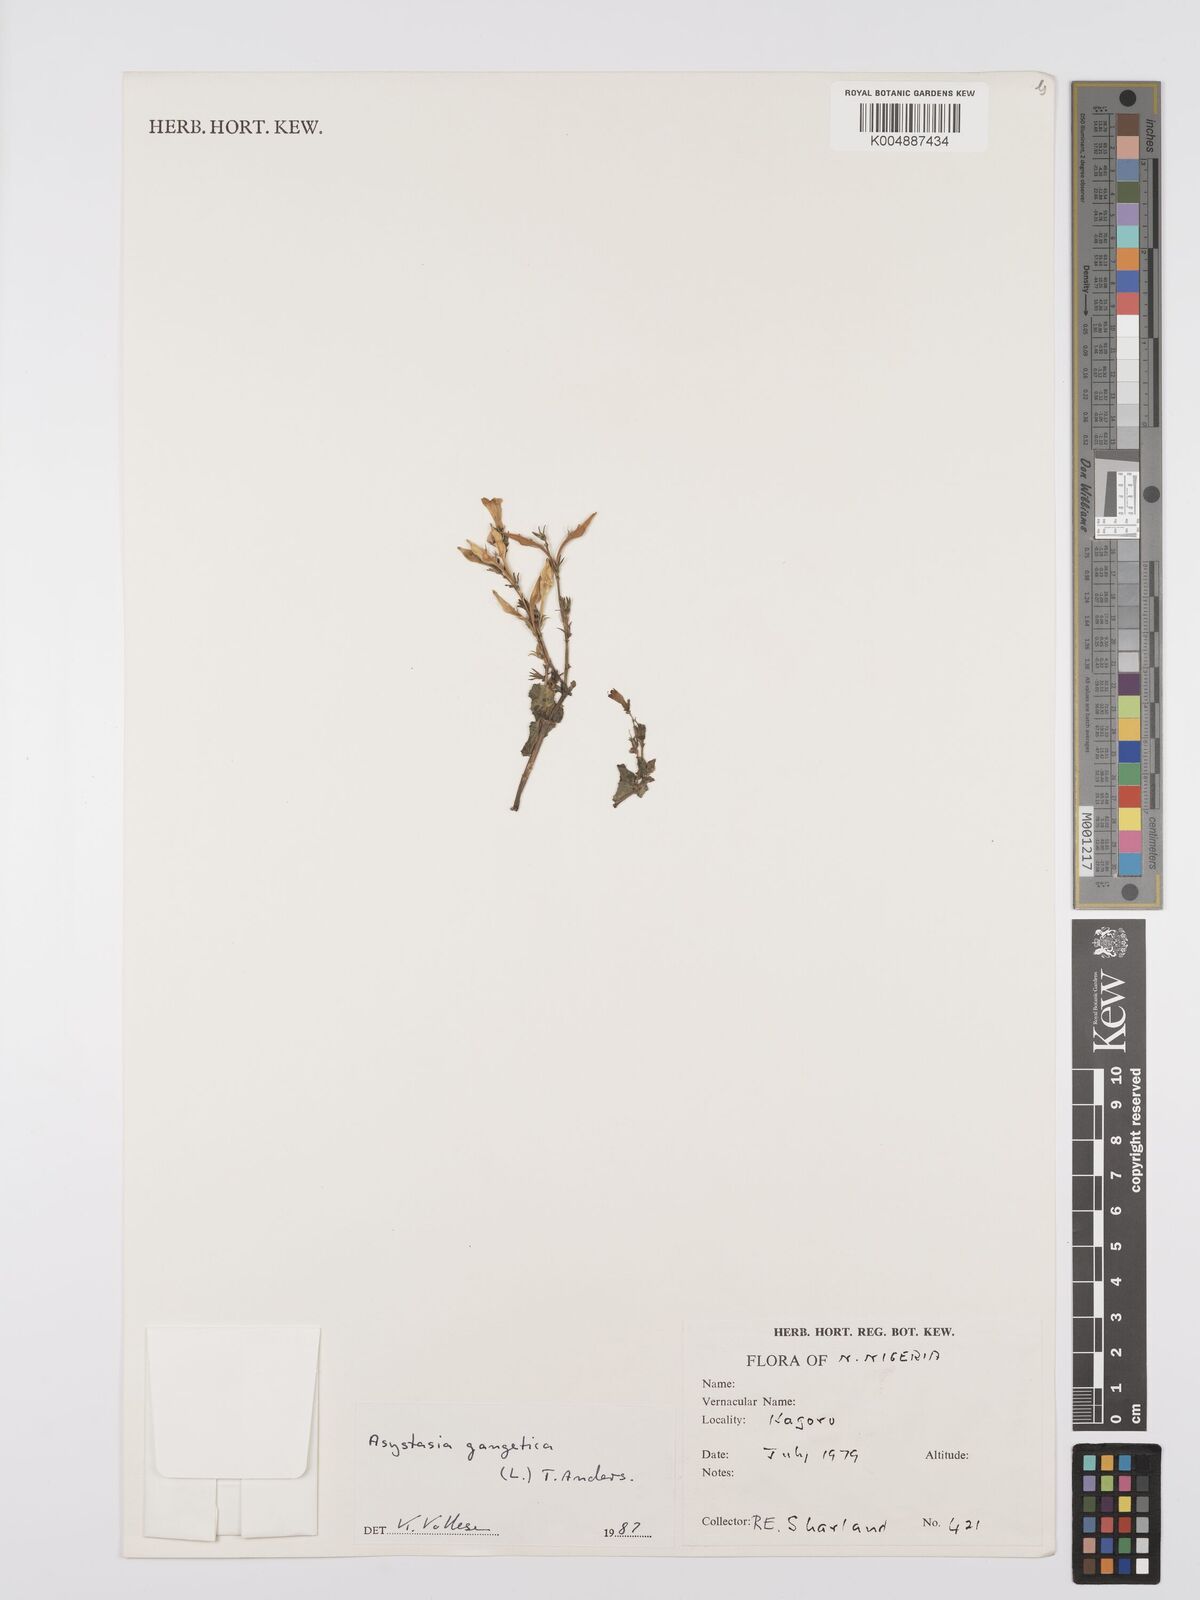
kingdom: Plantae
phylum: Tracheophyta
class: Magnoliopsida
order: Lamiales
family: Acanthaceae
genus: Asystasia
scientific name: Asystasia gangetica
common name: Chinese violet
